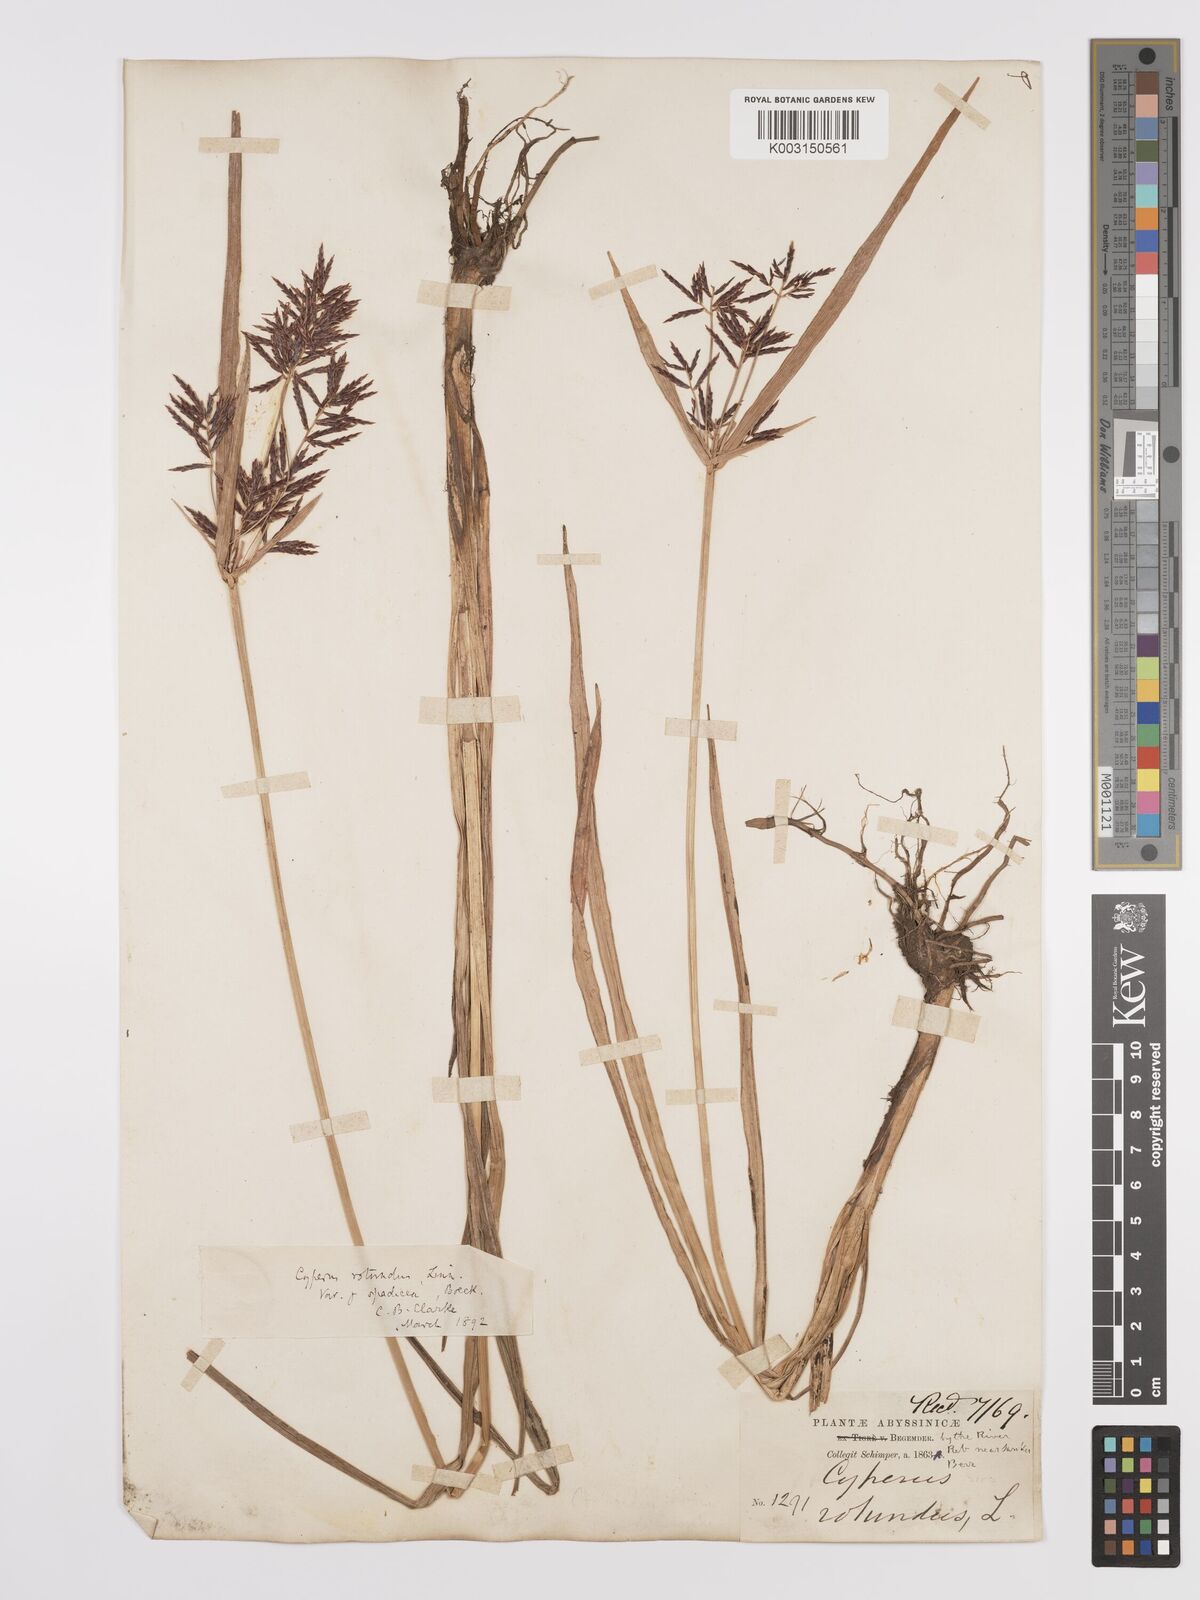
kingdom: Plantae
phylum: Tracheophyta
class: Liliopsida
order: Poales
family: Cyperaceae
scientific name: Cyperaceae
